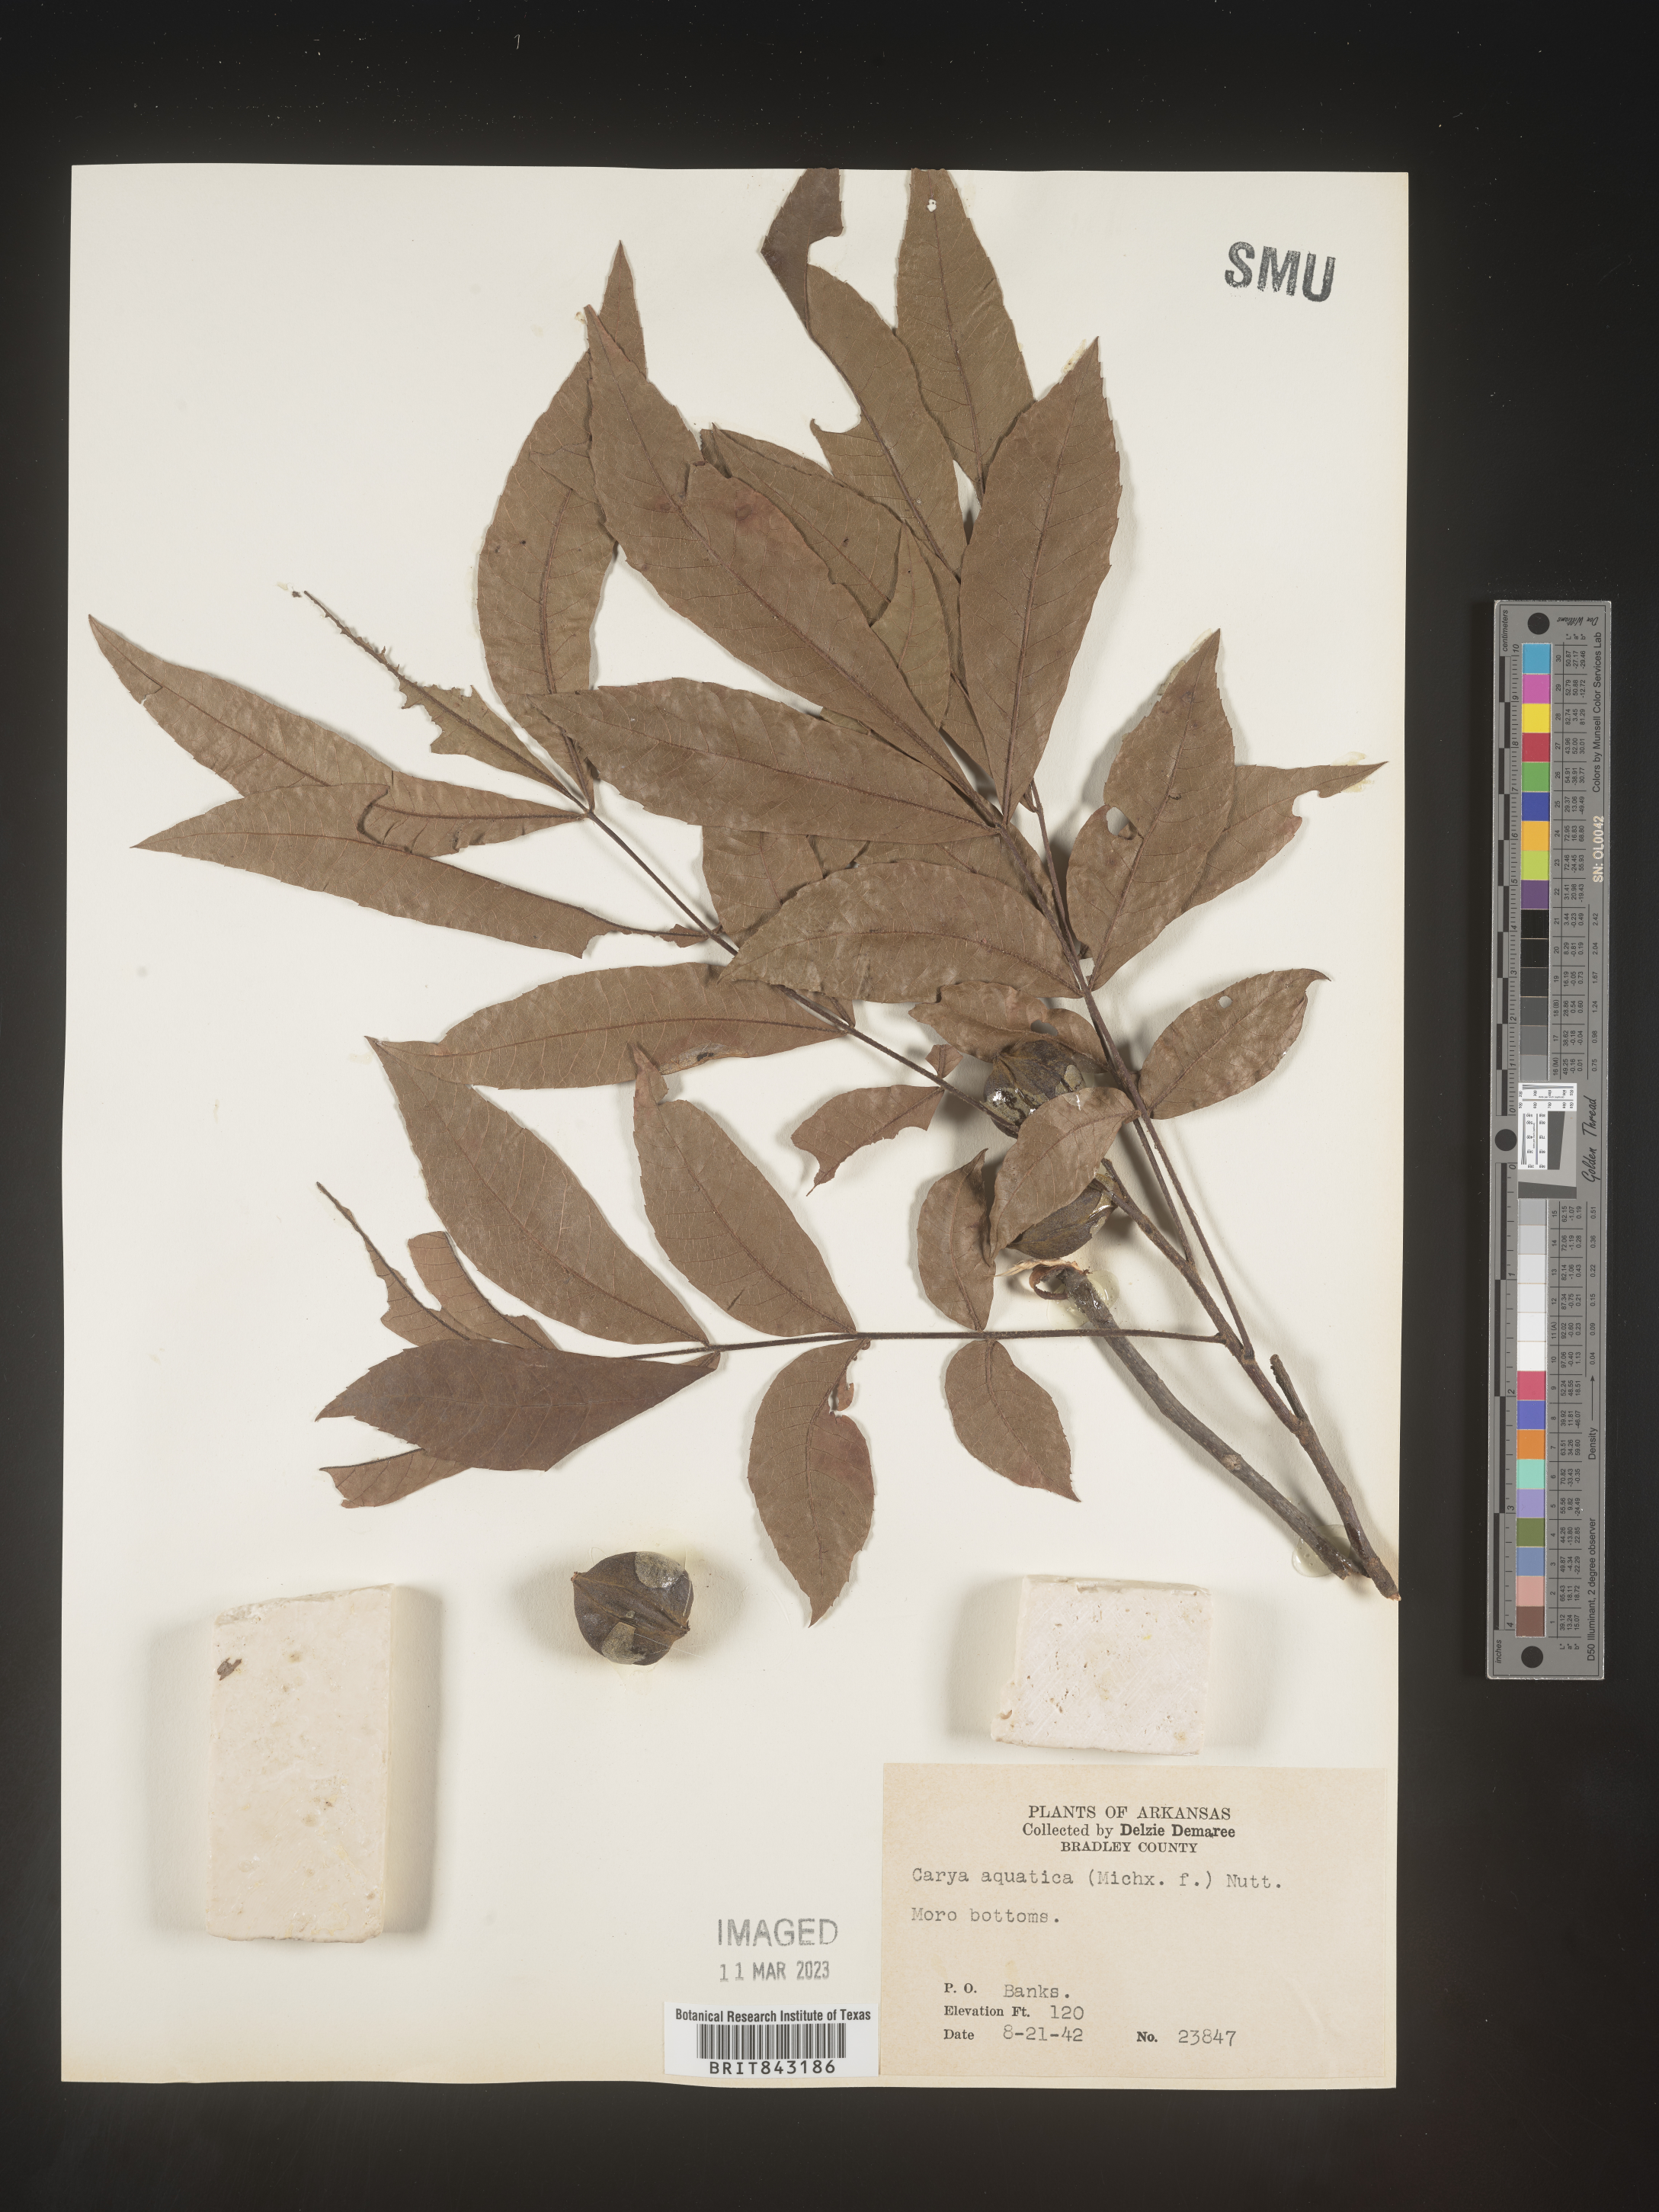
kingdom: Plantae
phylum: Tracheophyta
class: Magnoliopsida
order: Fagales
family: Juglandaceae
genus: Carya
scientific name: Carya aquatica
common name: Water hickory
